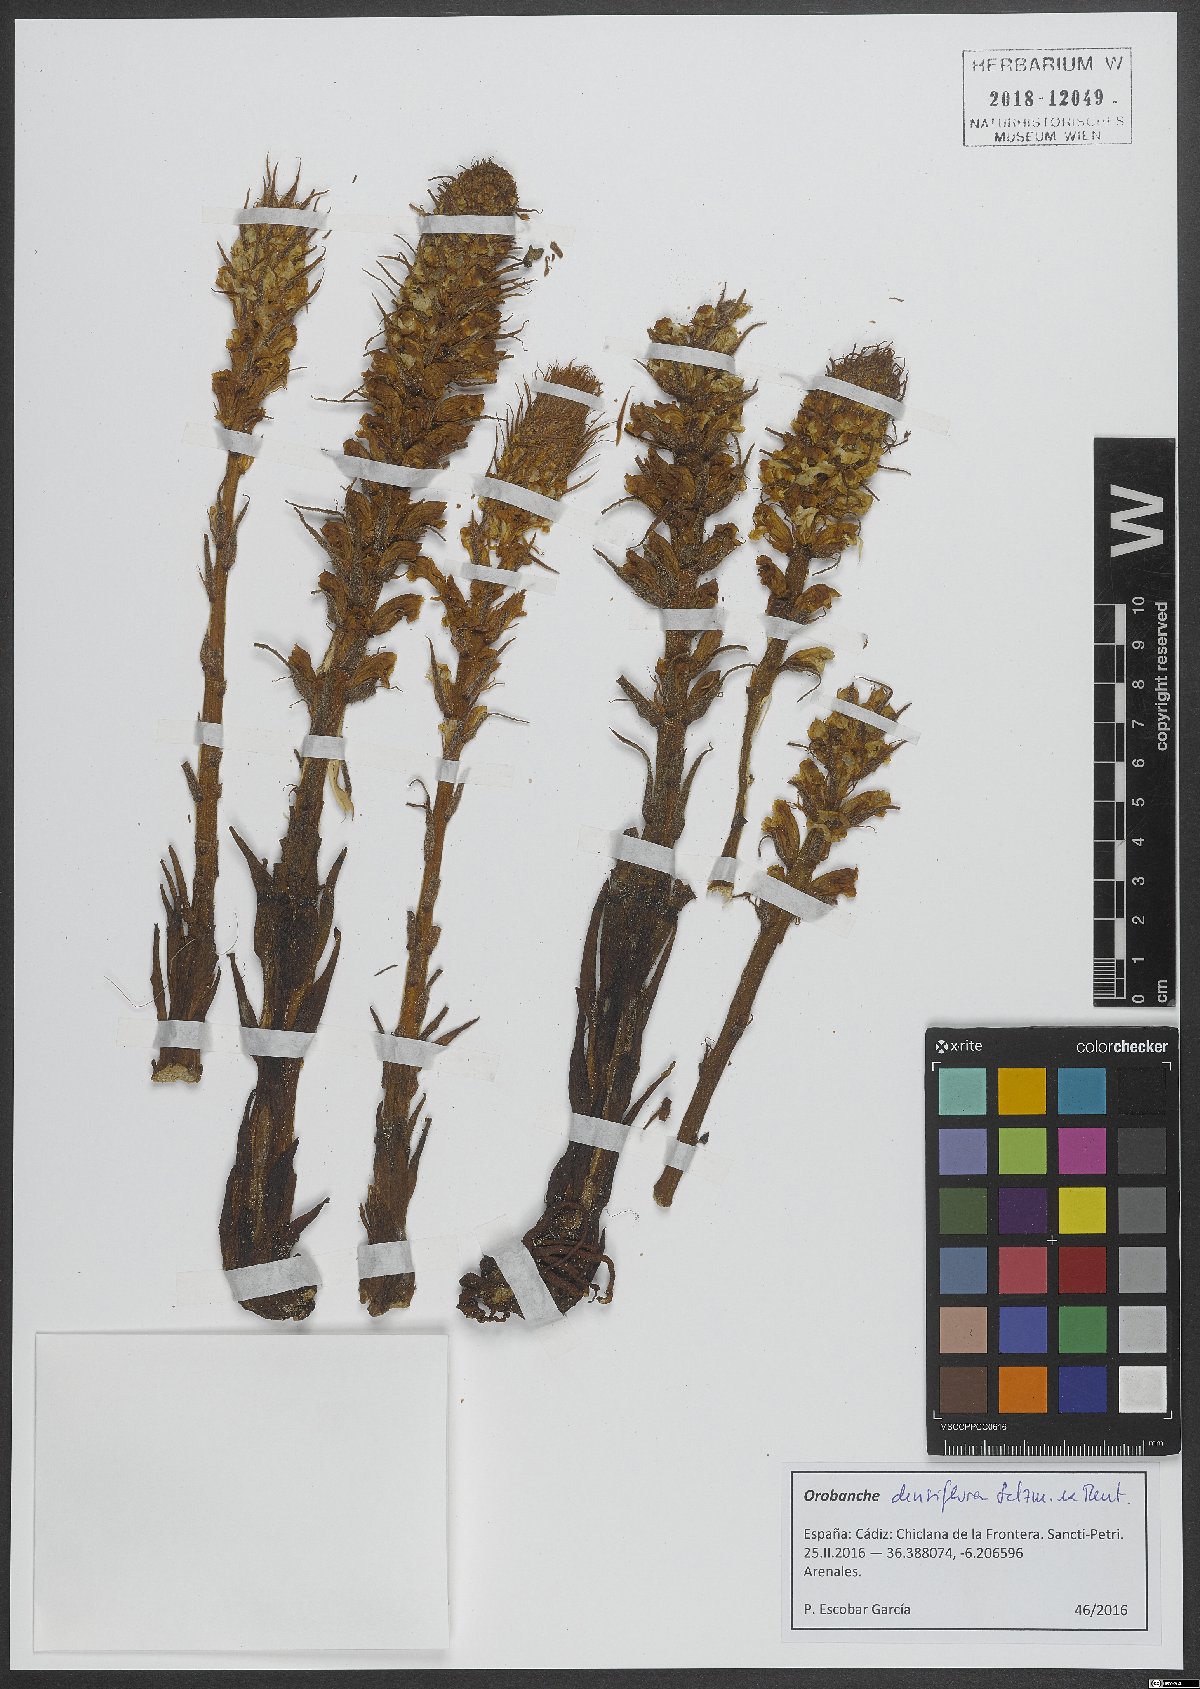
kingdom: Plantae
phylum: Tracheophyta
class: Magnoliopsida
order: Lamiales
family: Orobanchaceae
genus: Orobanche
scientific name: Orobanche densiflora
